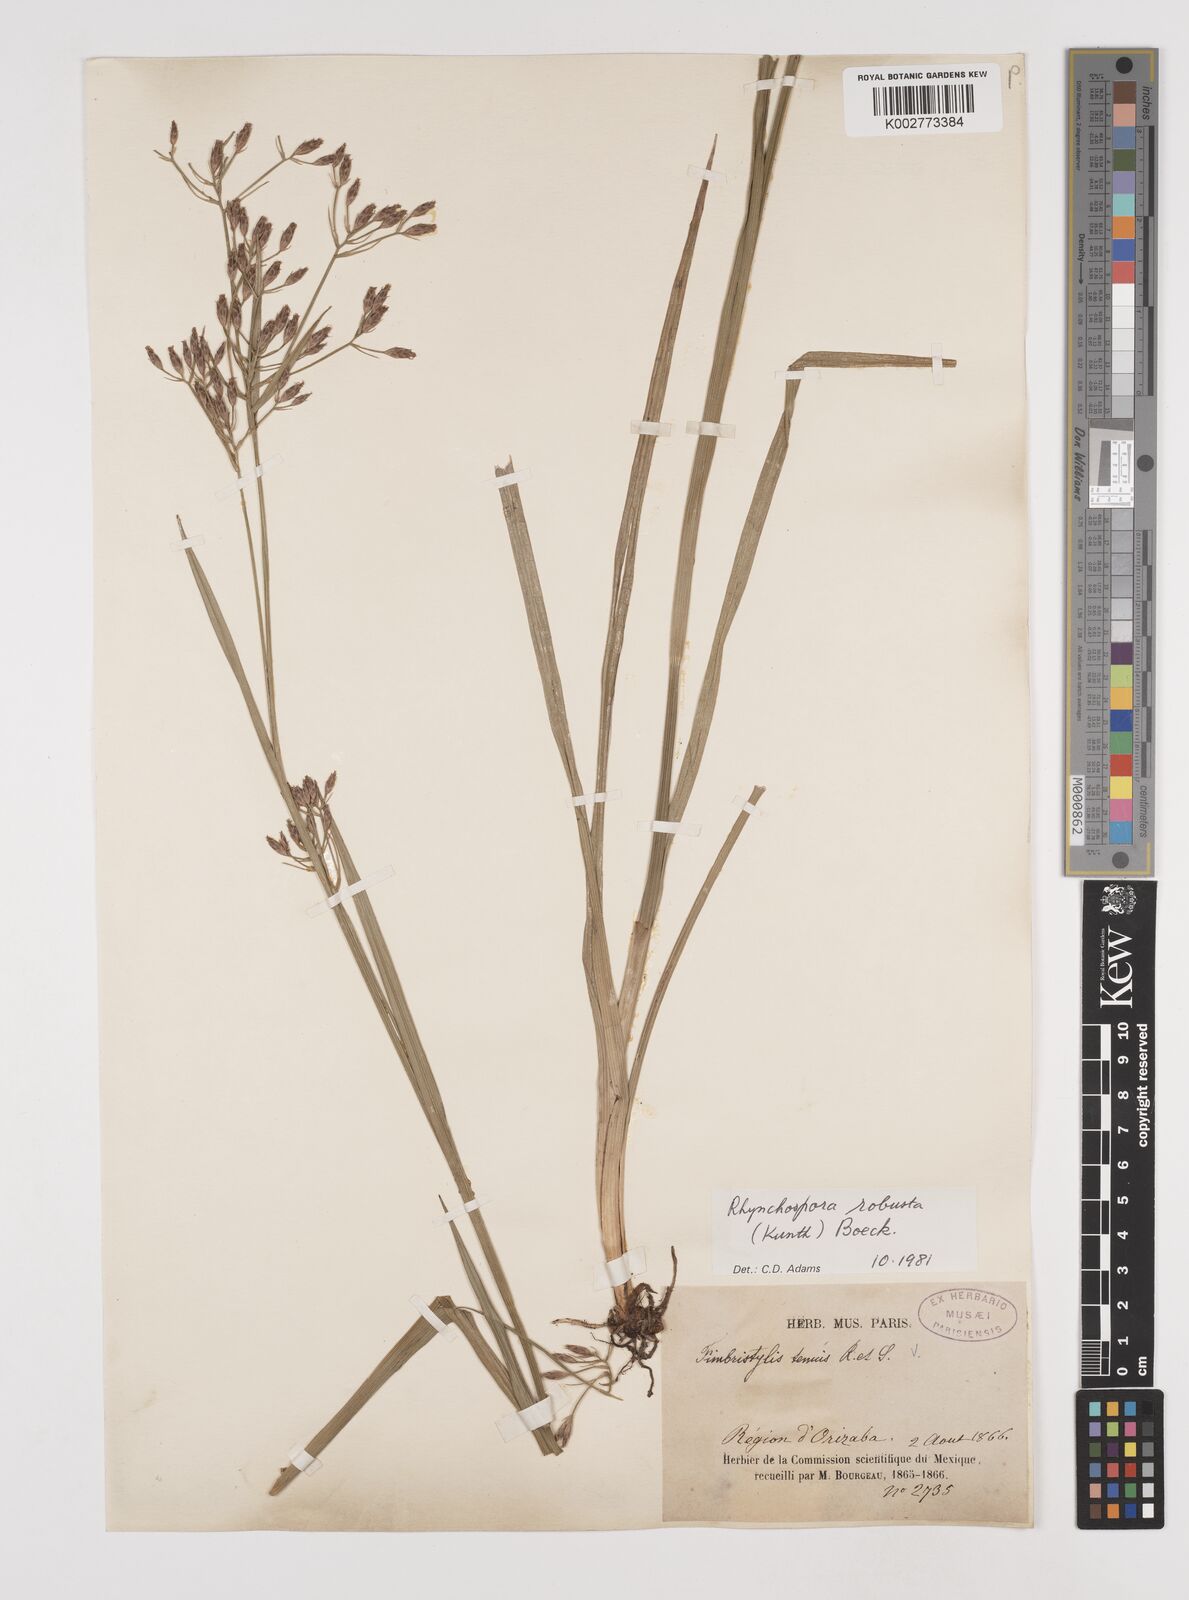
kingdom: Plantae
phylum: Tracheophyta
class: Liliopsida
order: Poales
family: Cyperaceae
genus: Rhynchospora
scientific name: Rhynchospora robusta
